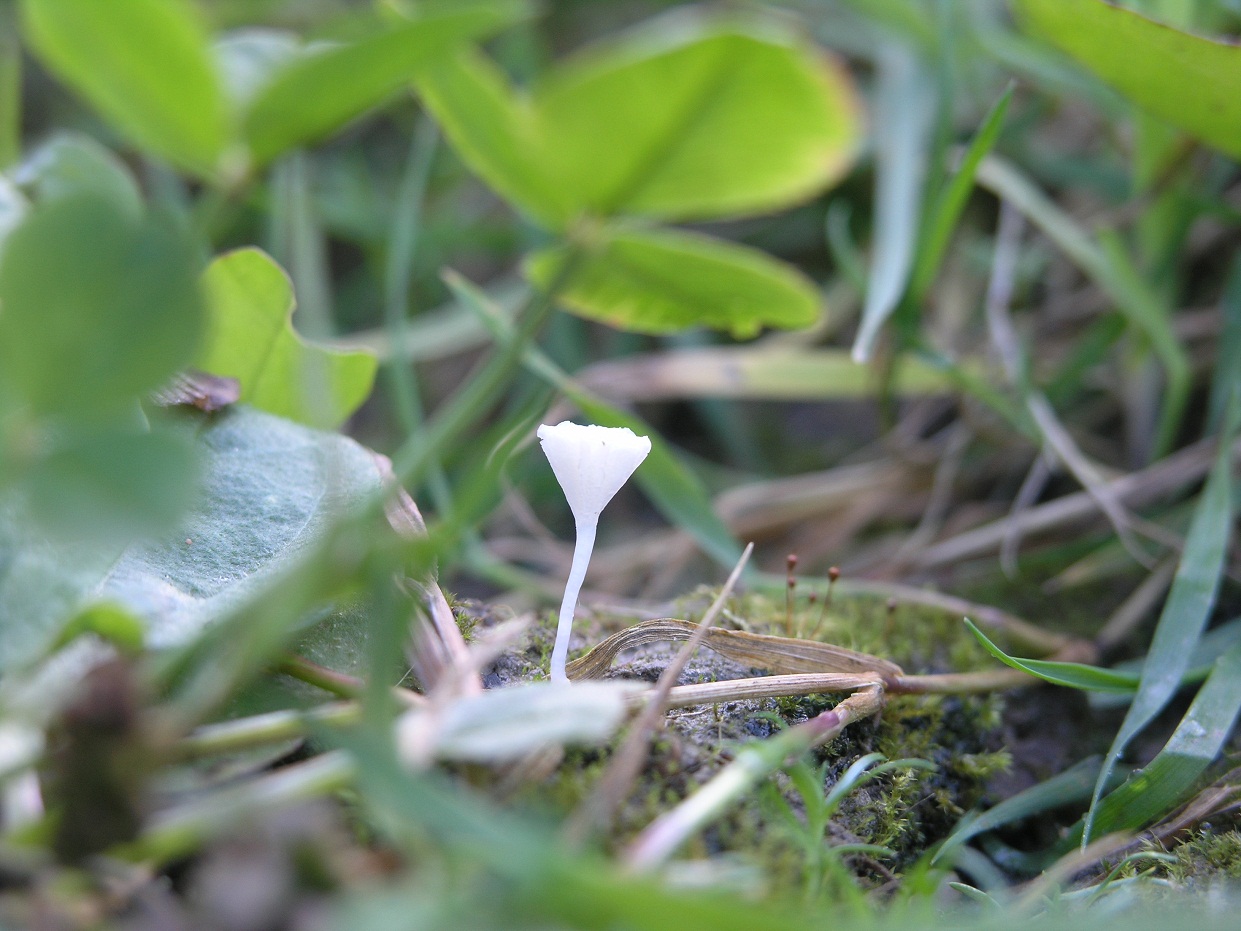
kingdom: Fungi
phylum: Basidiomycota
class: Agaricomycetes
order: Agaricales
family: Mycenaceae
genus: Hemimycena
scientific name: Hemimycena ignobilis
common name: faldskærms-huesvamp
